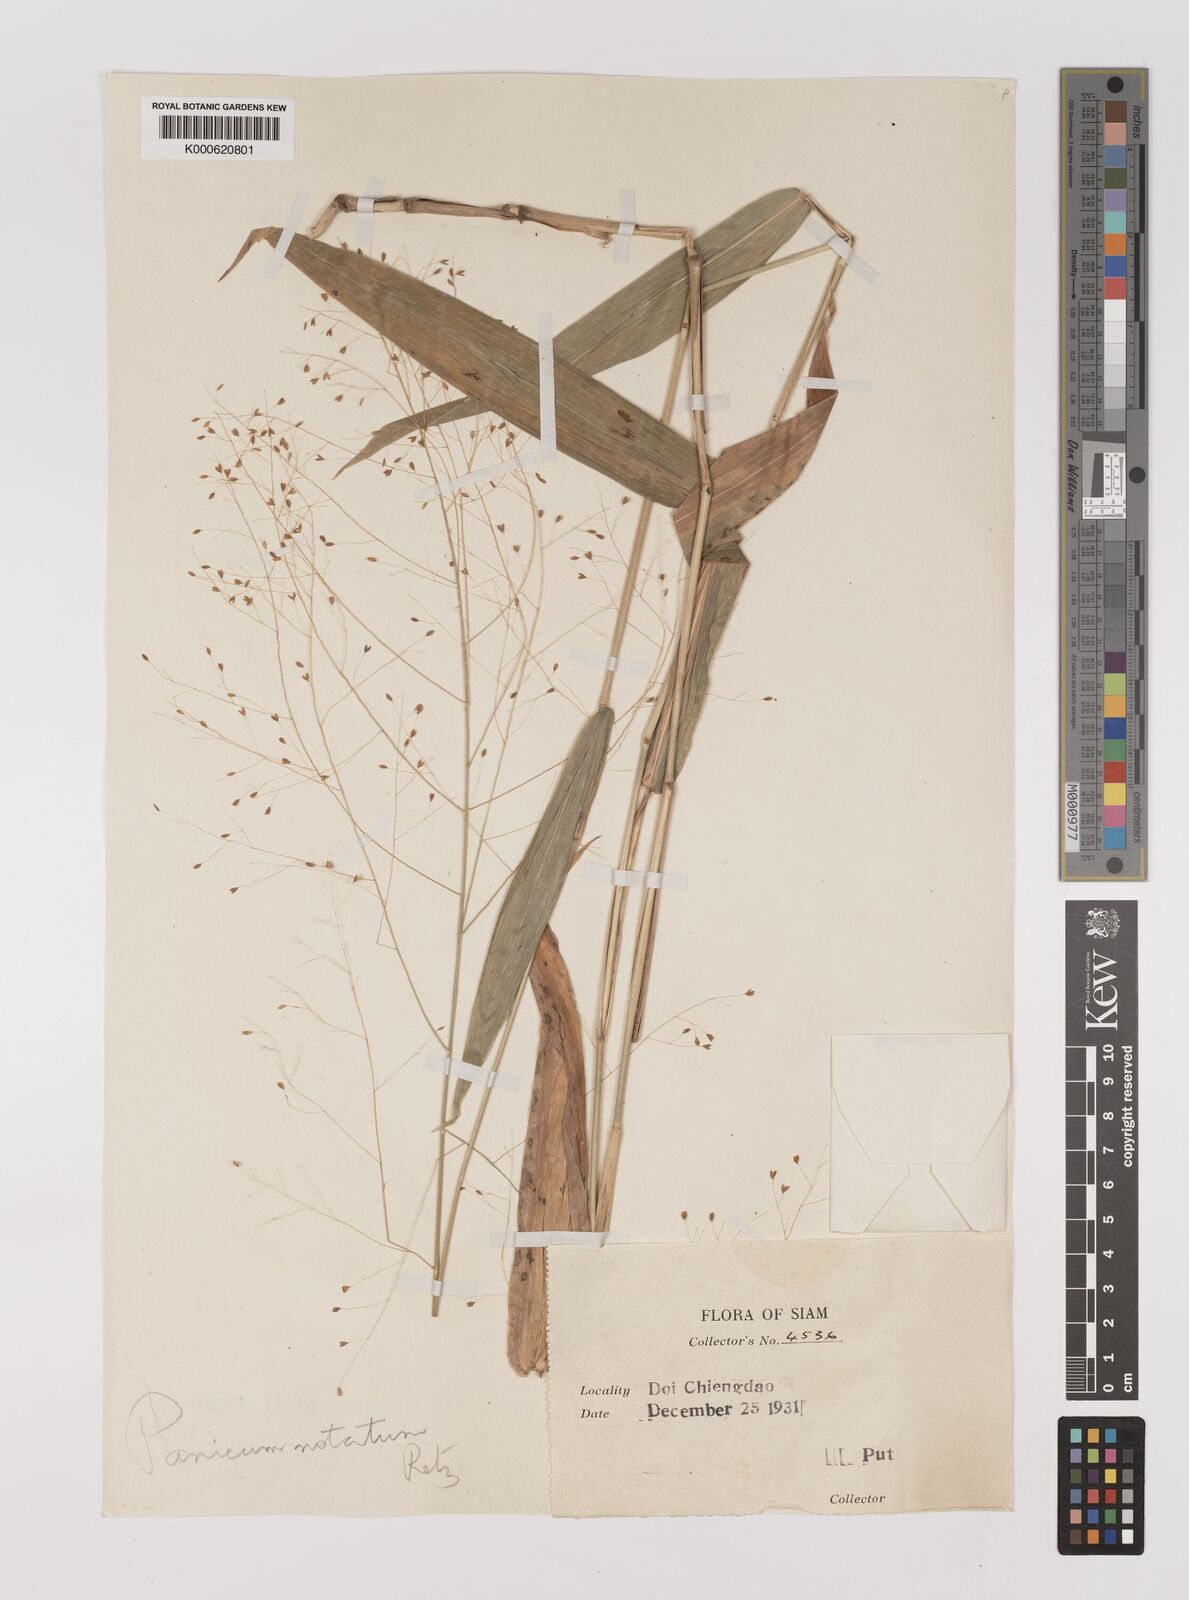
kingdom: Plantae
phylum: Tracheophyta
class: Liliopsida
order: Poales
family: Poaceae
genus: Panicum
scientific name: Panicum notatum
